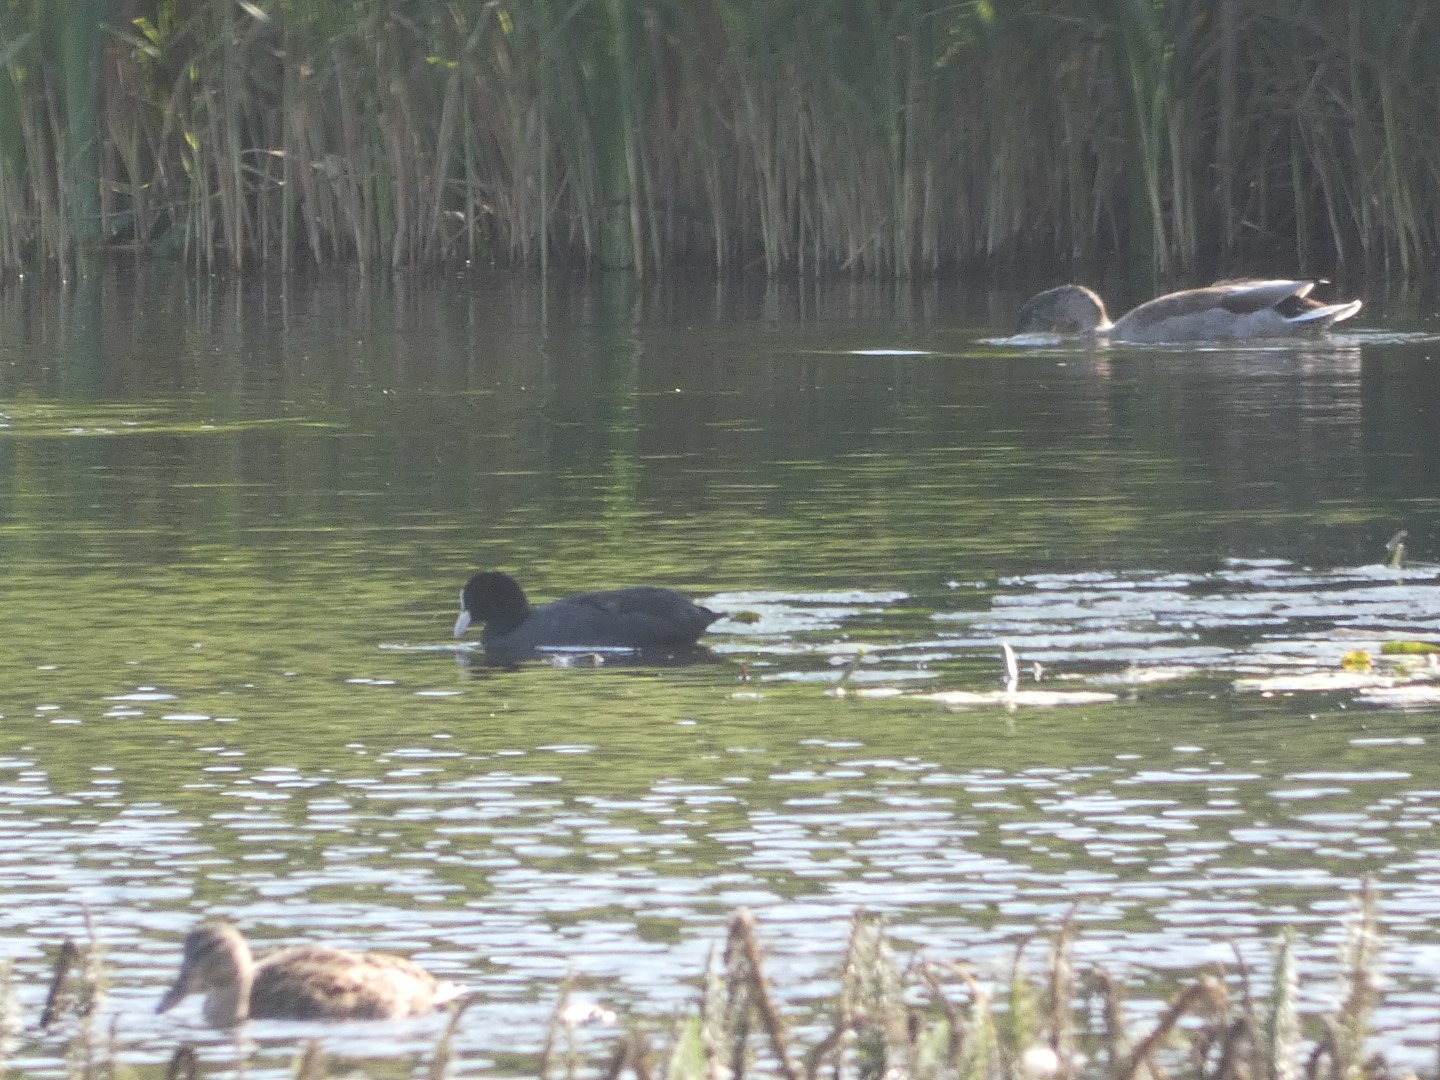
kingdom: Animalia
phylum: Chordata
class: Aves
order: Gruiformes
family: Rallidae
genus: Fulica
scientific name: Fulica atra
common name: Blishøne
